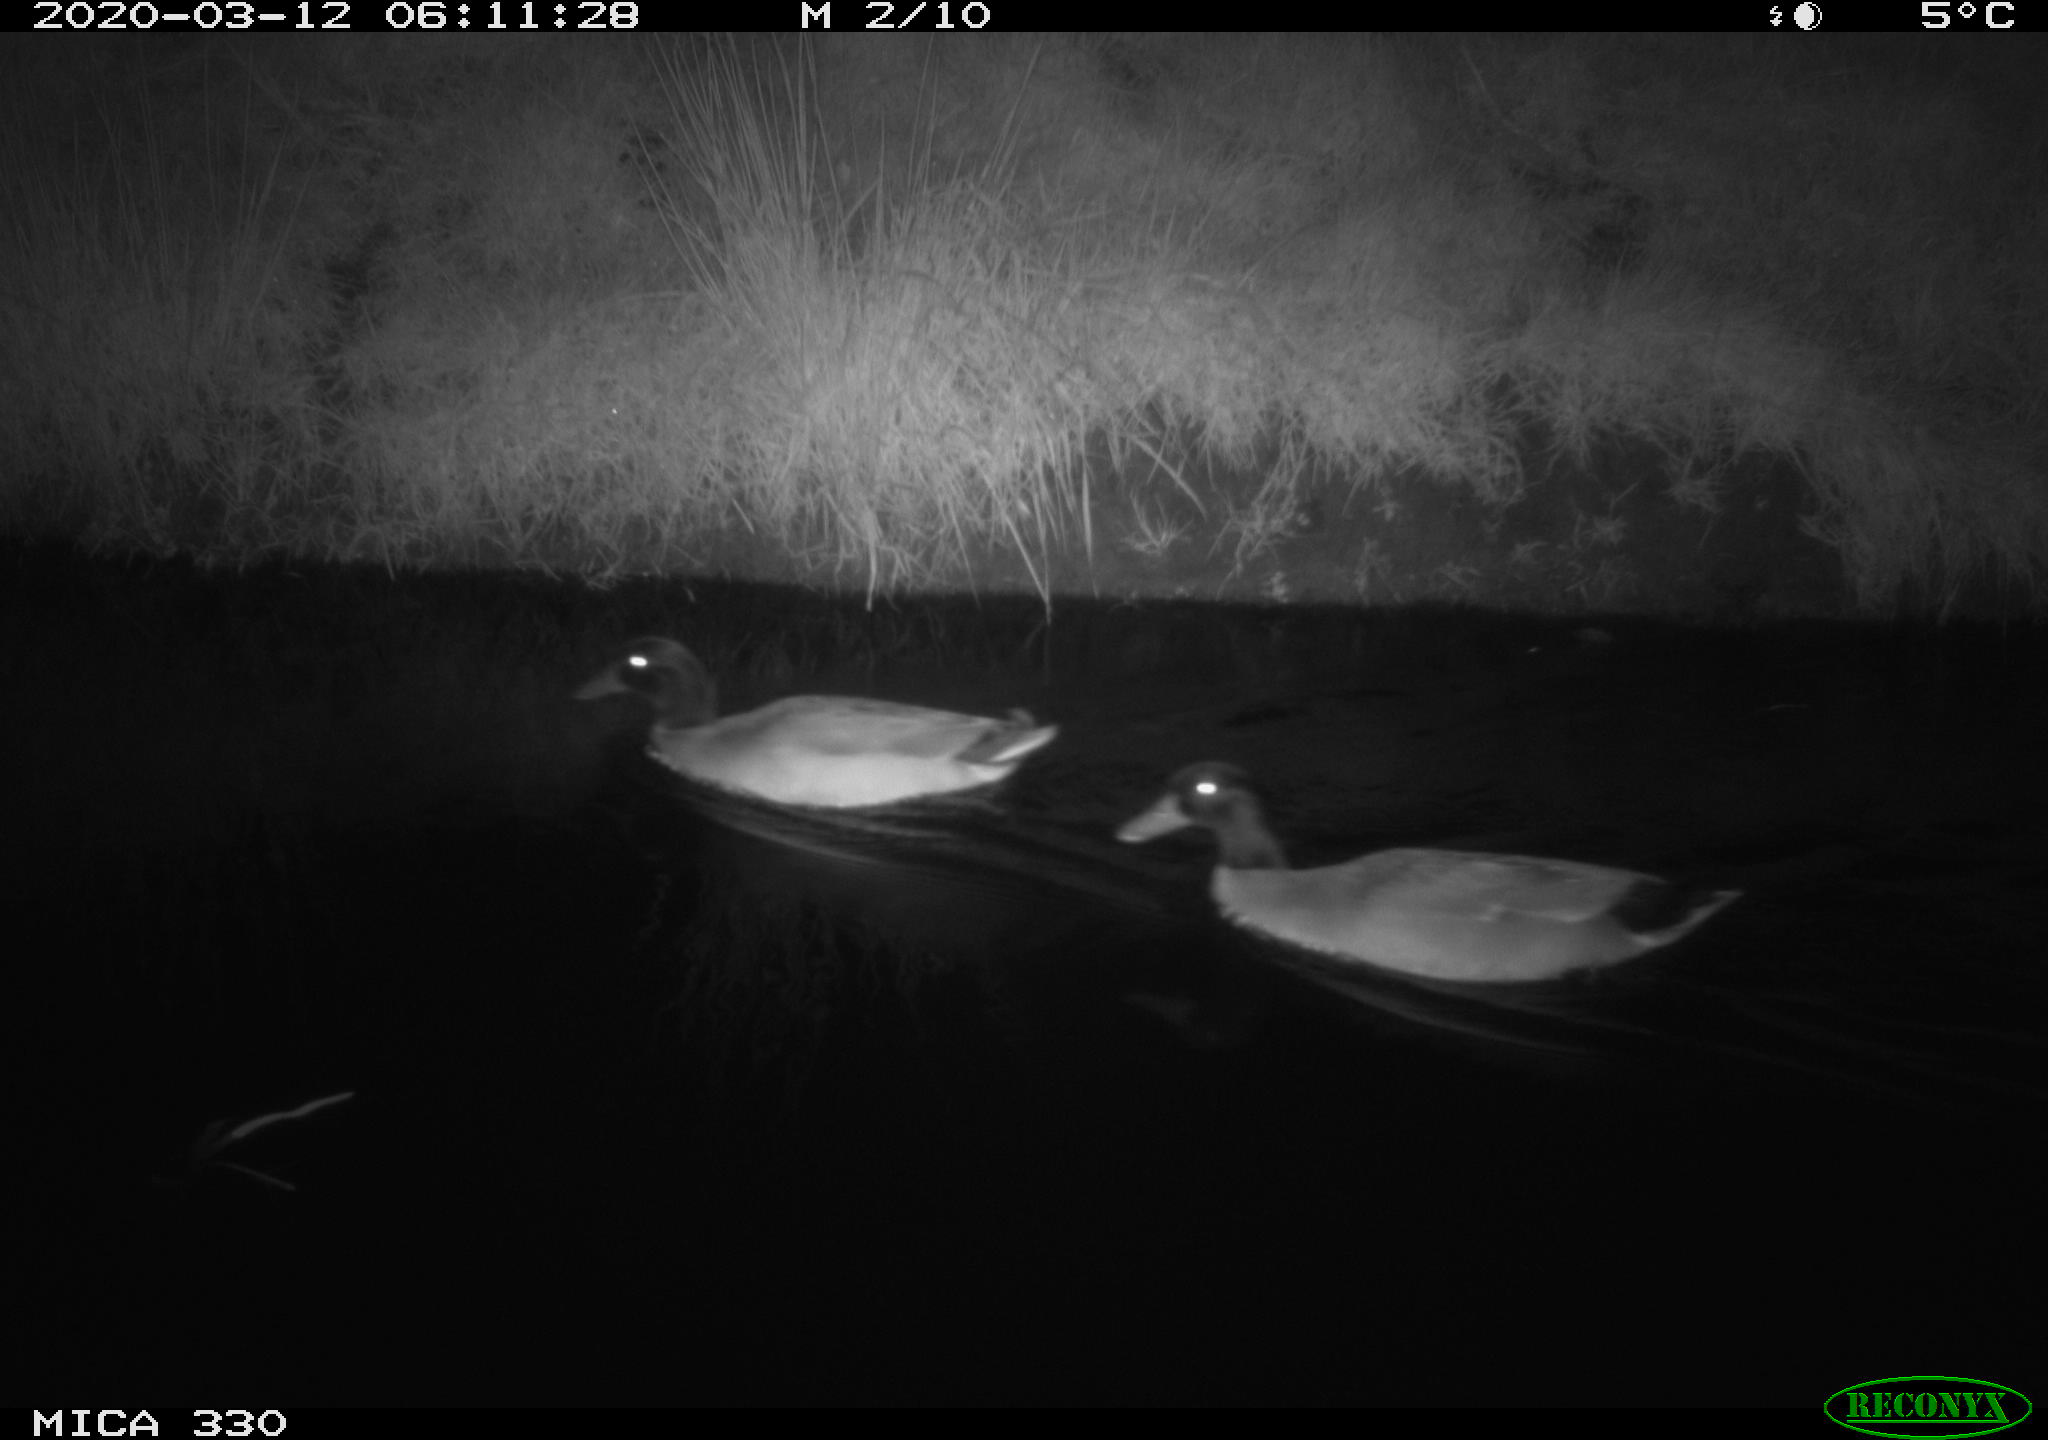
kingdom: Animalia
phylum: Chordata
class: Aves
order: Anseriformes
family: Anatidae
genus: Anas
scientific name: Anas platyrhynchos
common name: Mallard
